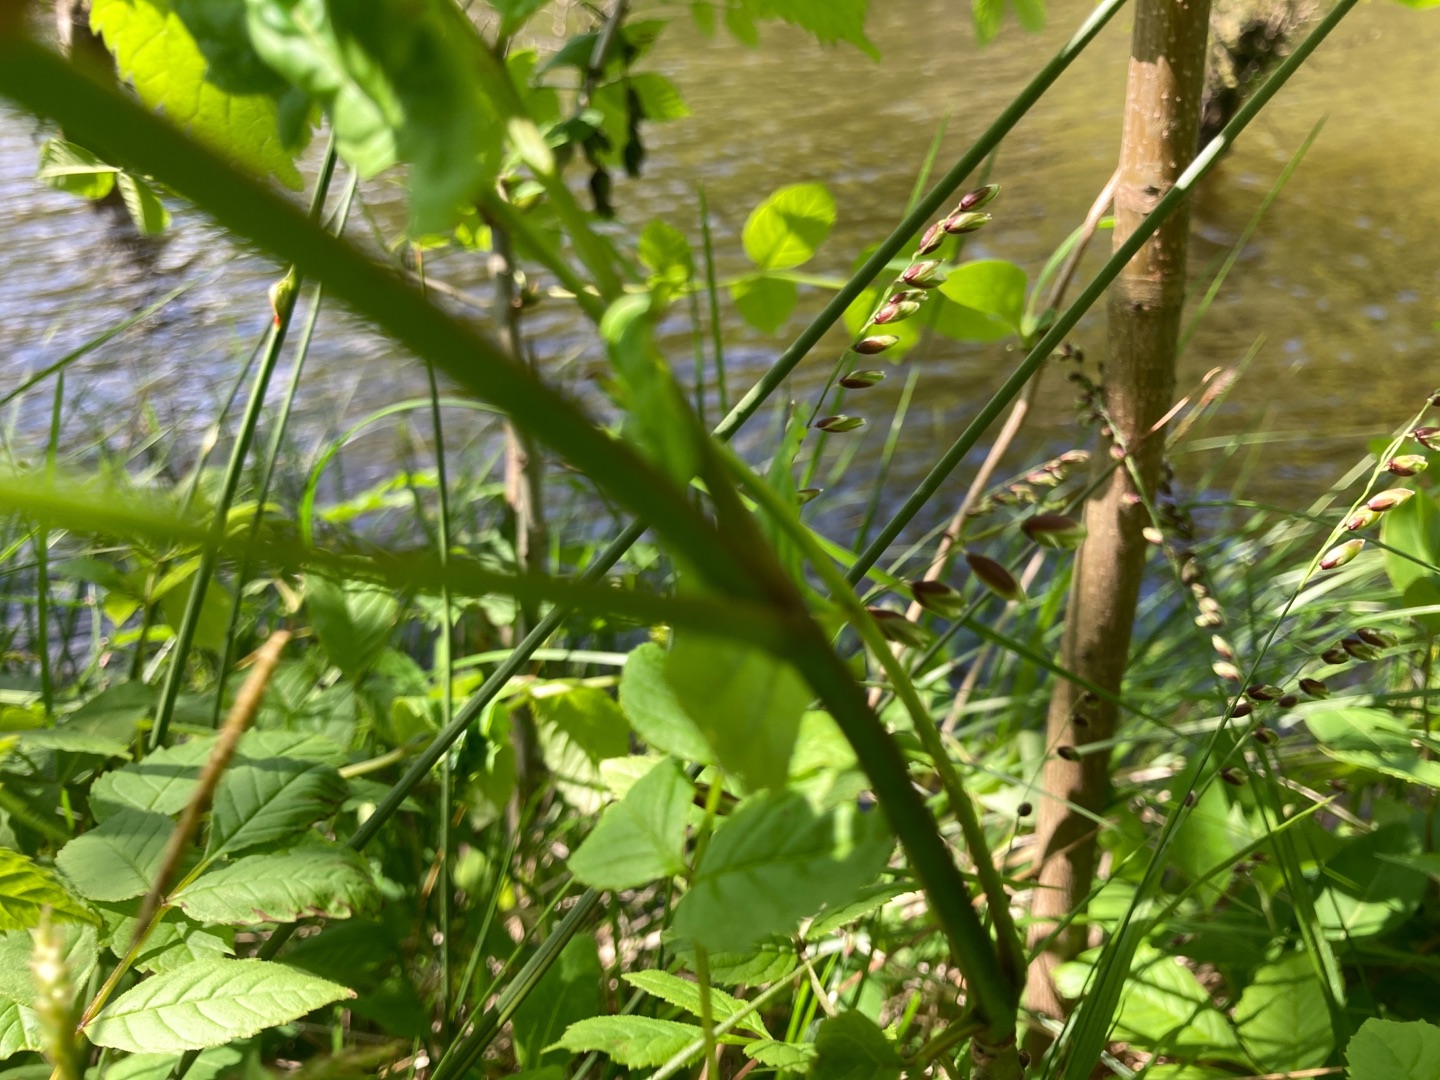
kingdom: Plantae
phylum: Tracheophyta
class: Liliopsida
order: Poales
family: Poaceae
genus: Melica
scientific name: Melica nutans
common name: Nikkende flitteraks
